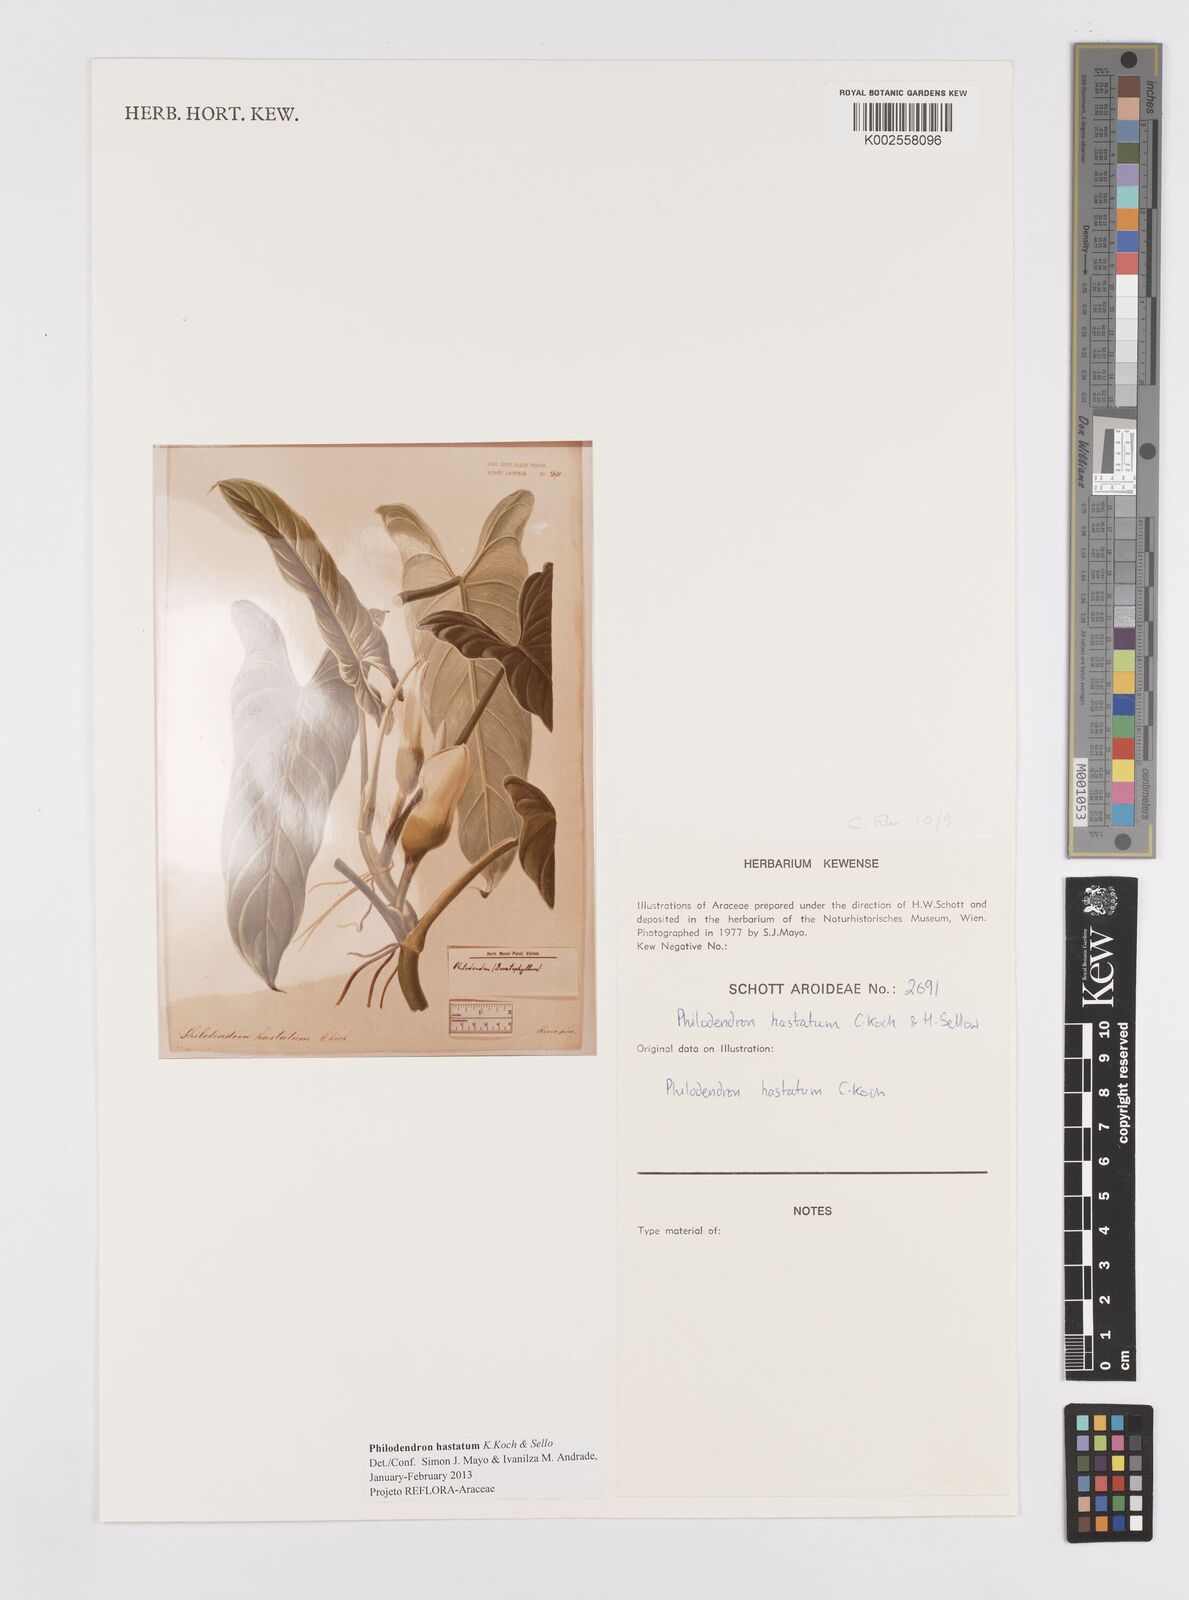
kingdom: Plantae
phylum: Tracheophyta
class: Liliopsida
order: Alismatales
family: Araceae
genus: Philodendron
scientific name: Philodendron hastatum
